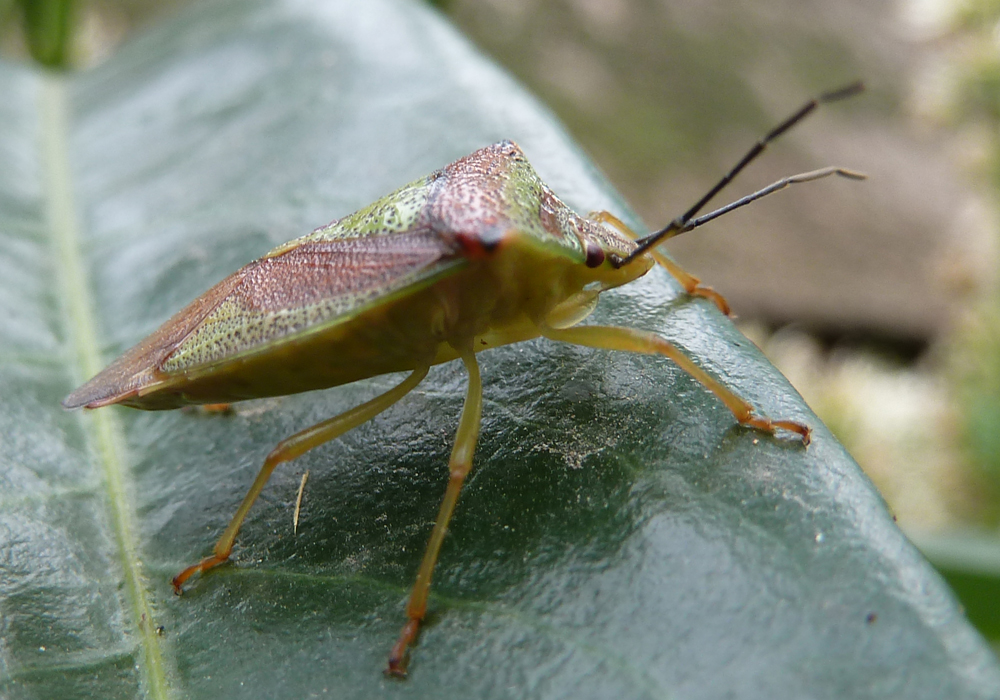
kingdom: Animalia
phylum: Arthropoda
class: Insecta
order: Hemiptera
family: Acanthosomatidae
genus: Acanthosoma
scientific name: Acanthosoma haemorrhoidale
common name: Hawthorn shieldbug
